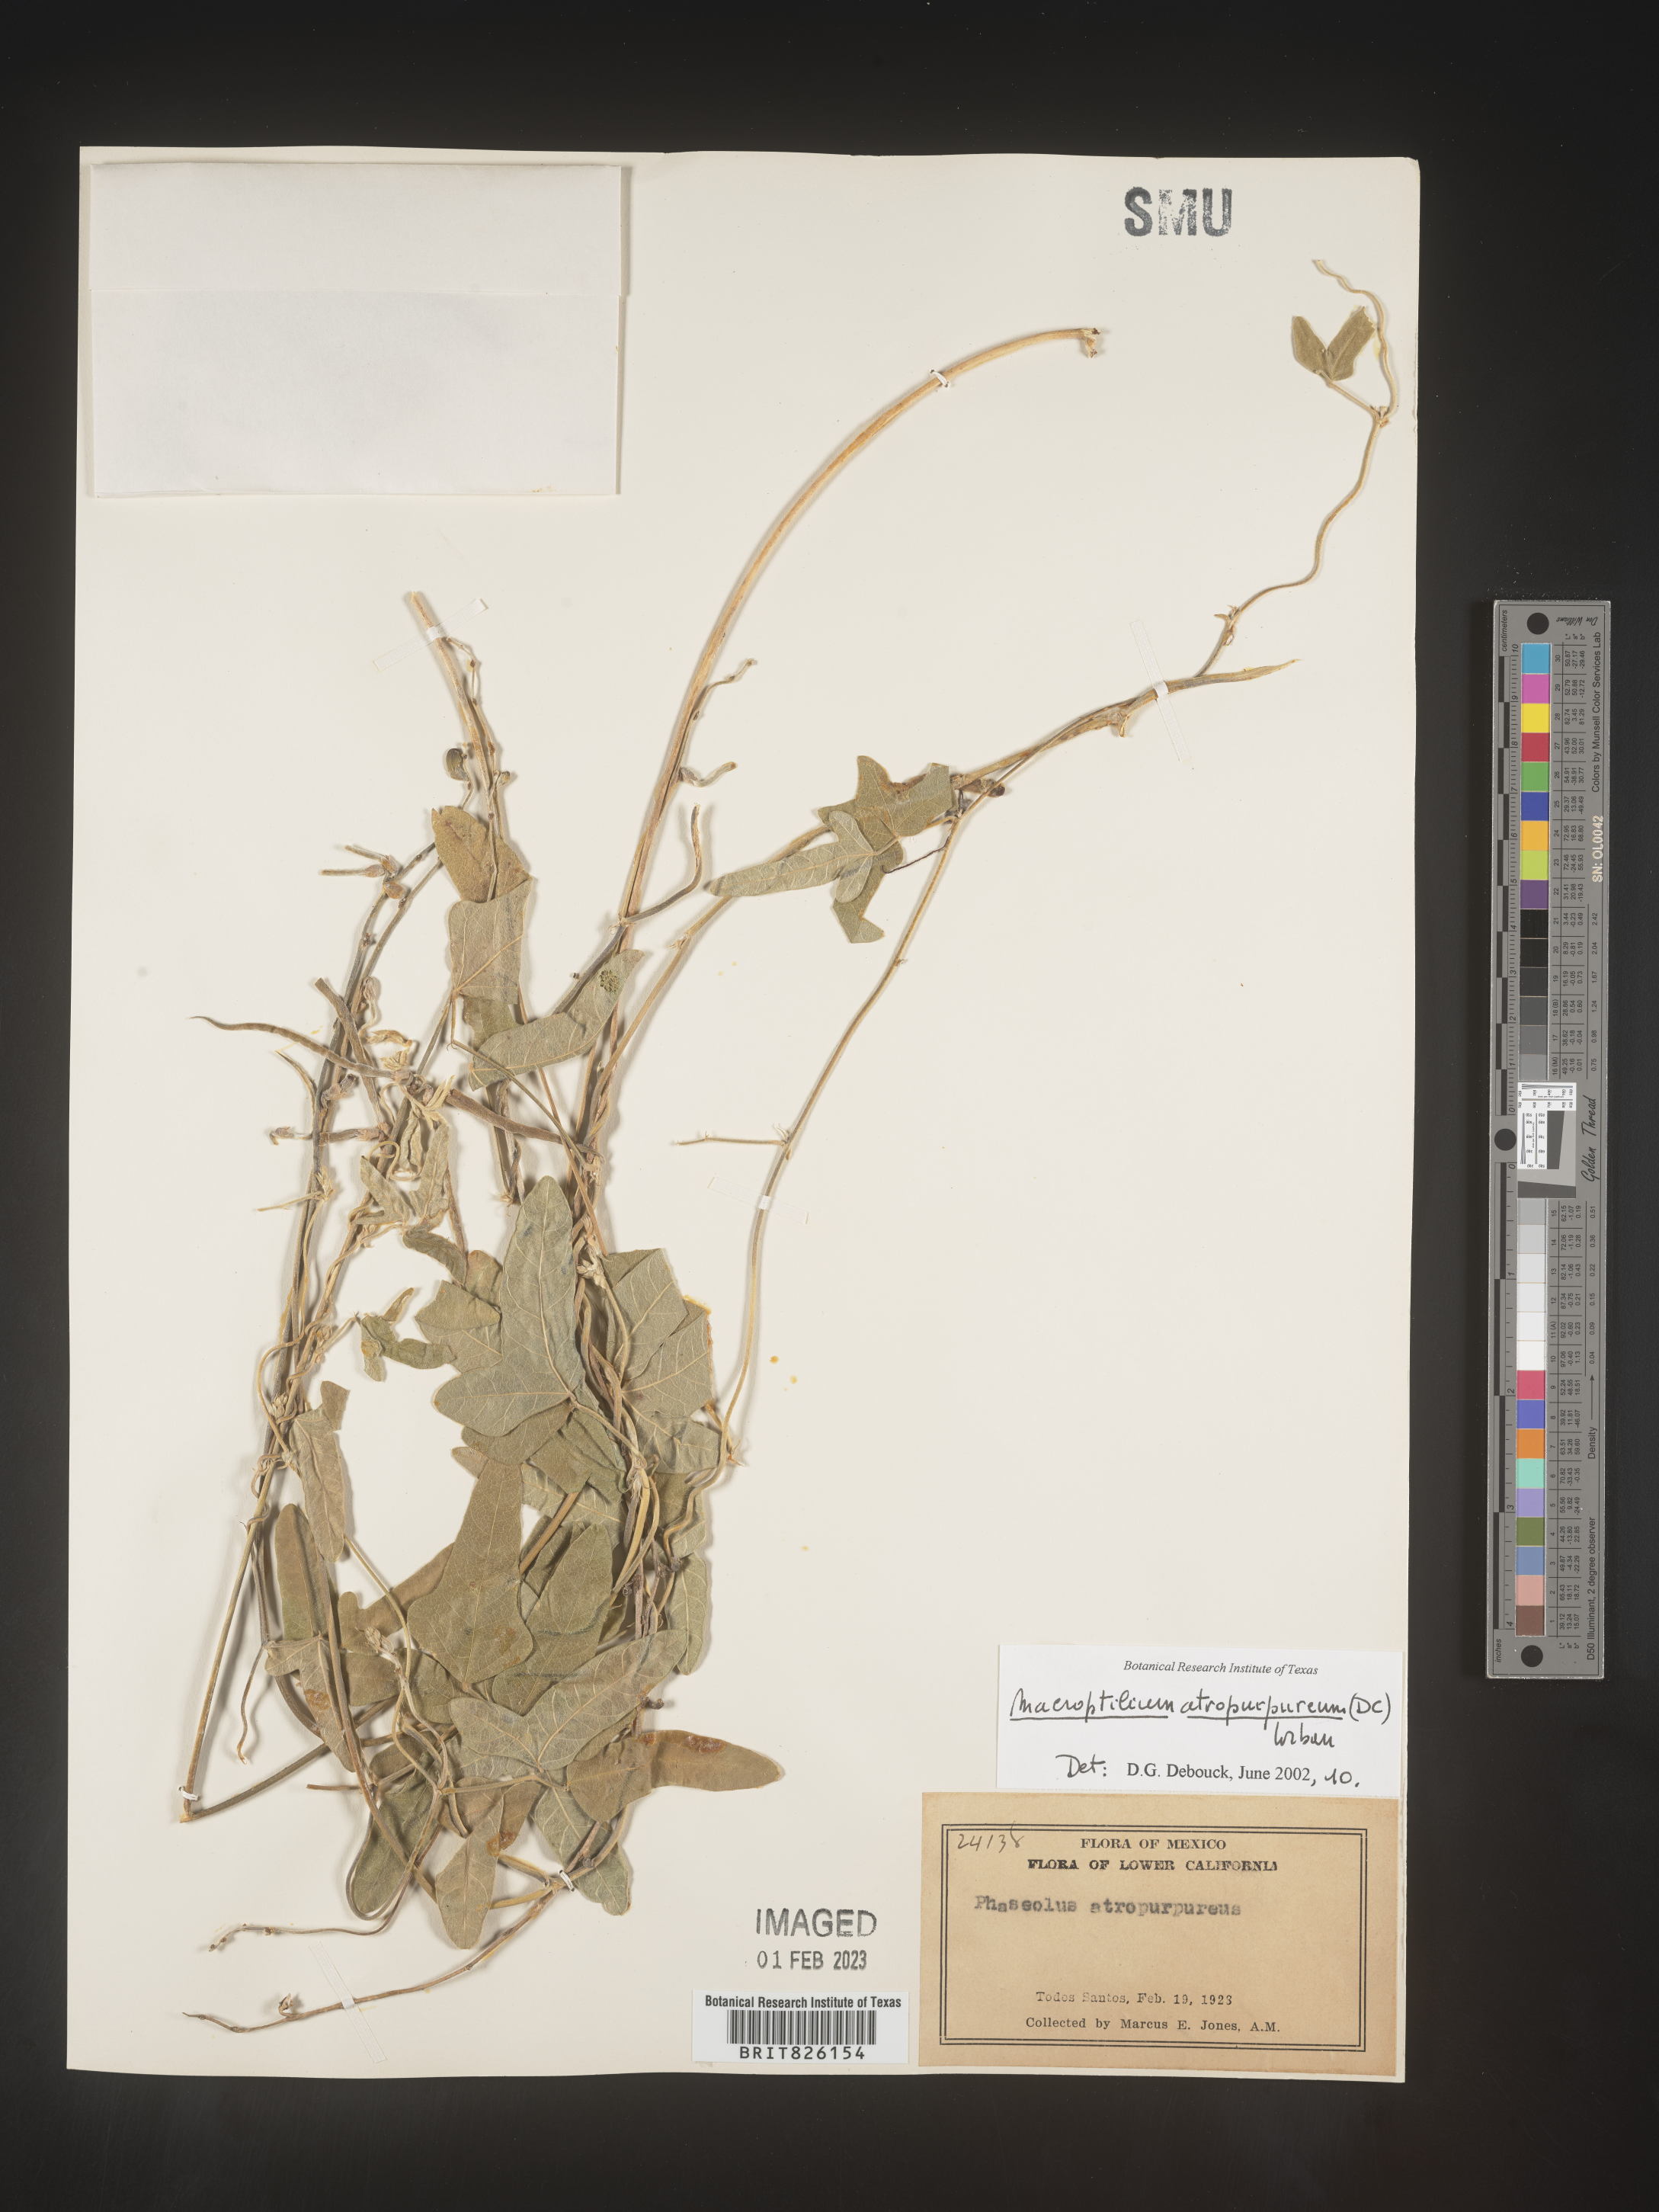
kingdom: Plantae
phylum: Tracheophyta
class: Magnoliopsida
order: Fabales
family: Fabaceae
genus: Macroptilium
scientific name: Macroptilium
